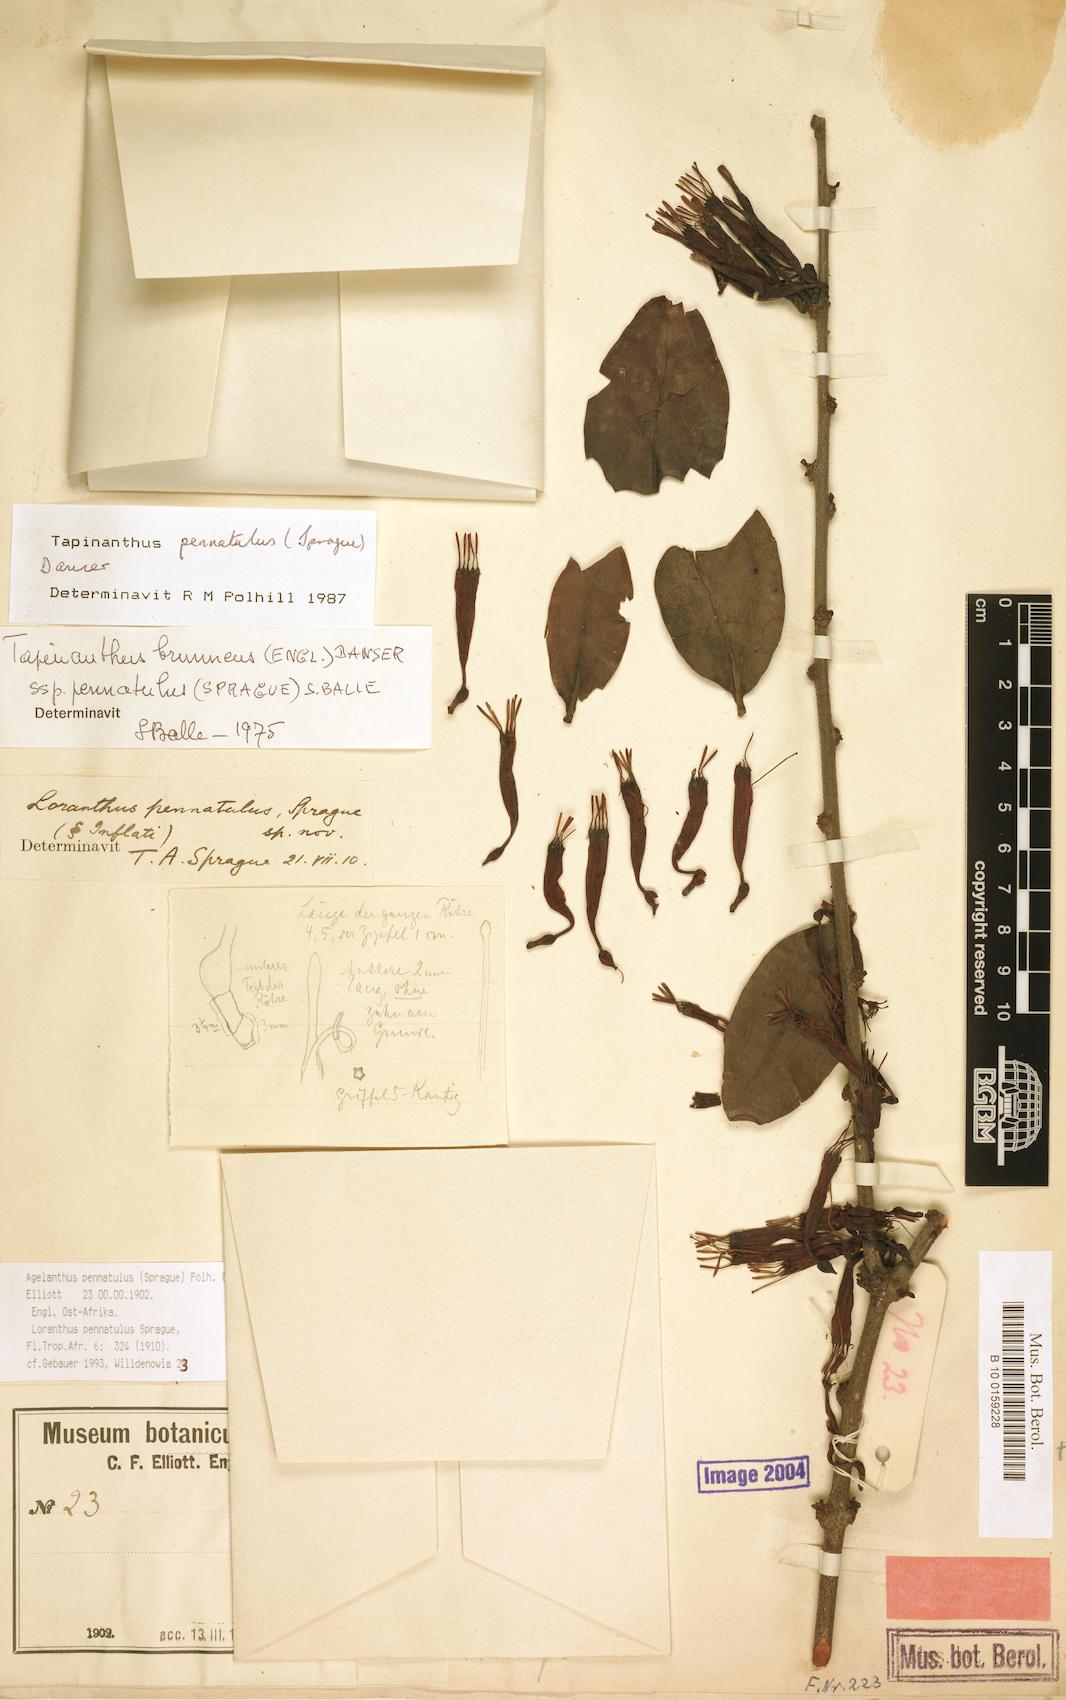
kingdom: Plantae
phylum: Tracheophyta
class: Magnoliopsida
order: Santalales
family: Loranthaceae
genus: Agelanthus
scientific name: Agelanthus pennatulus
